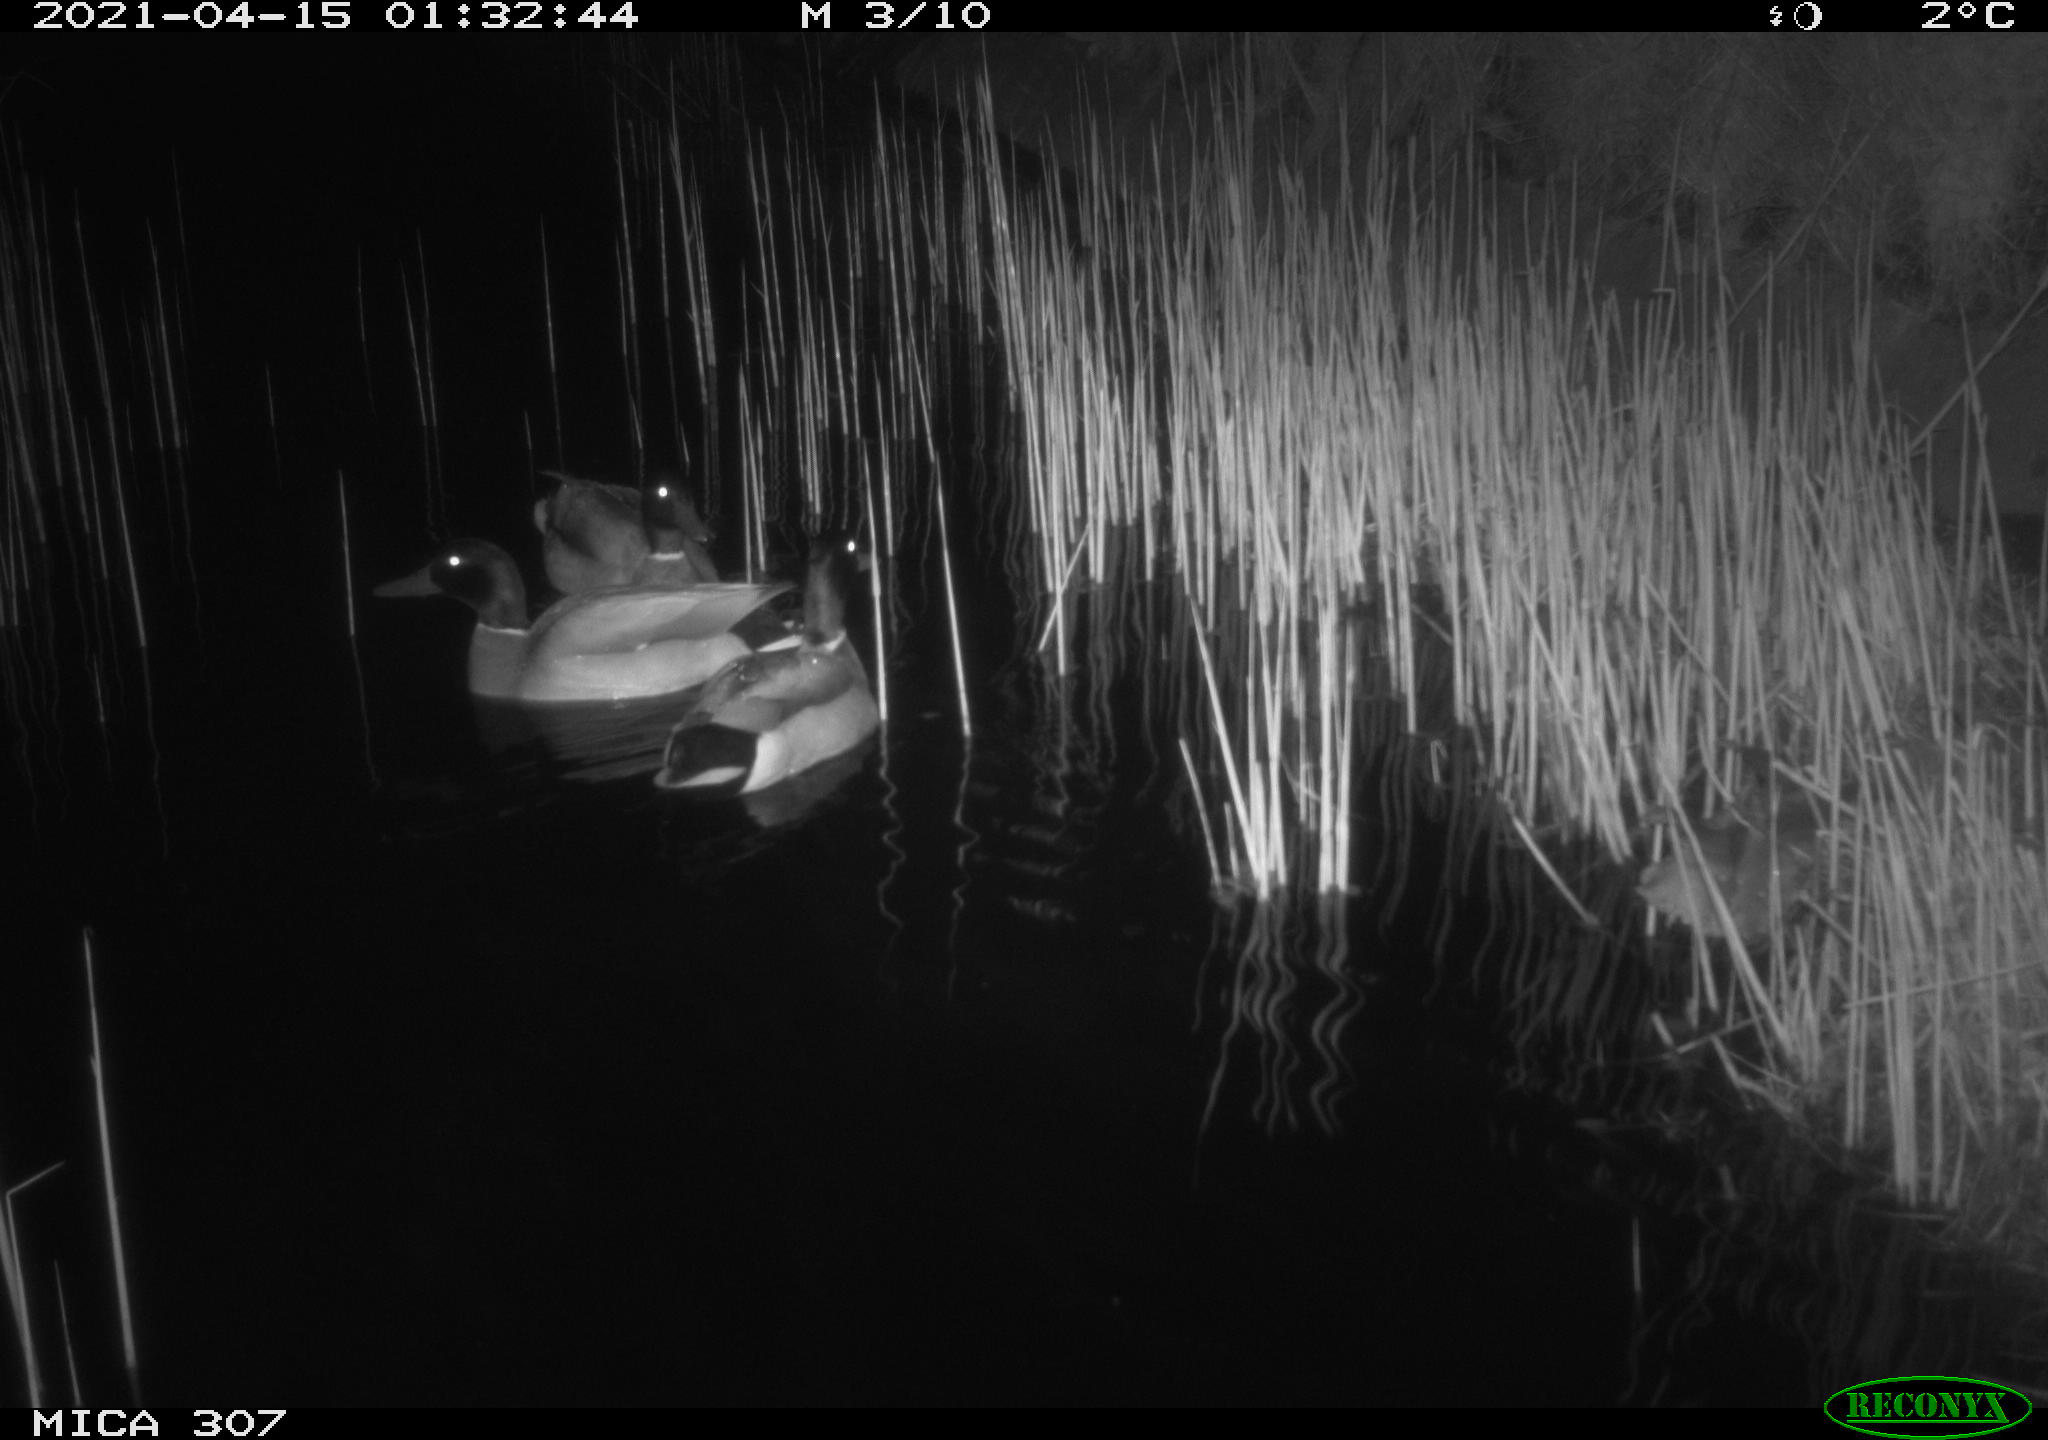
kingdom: Animalia
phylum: Chordata
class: Aves
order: Anseriformes
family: Anatidae
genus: Anas
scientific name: Anas platyrhynchos
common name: Mallard
